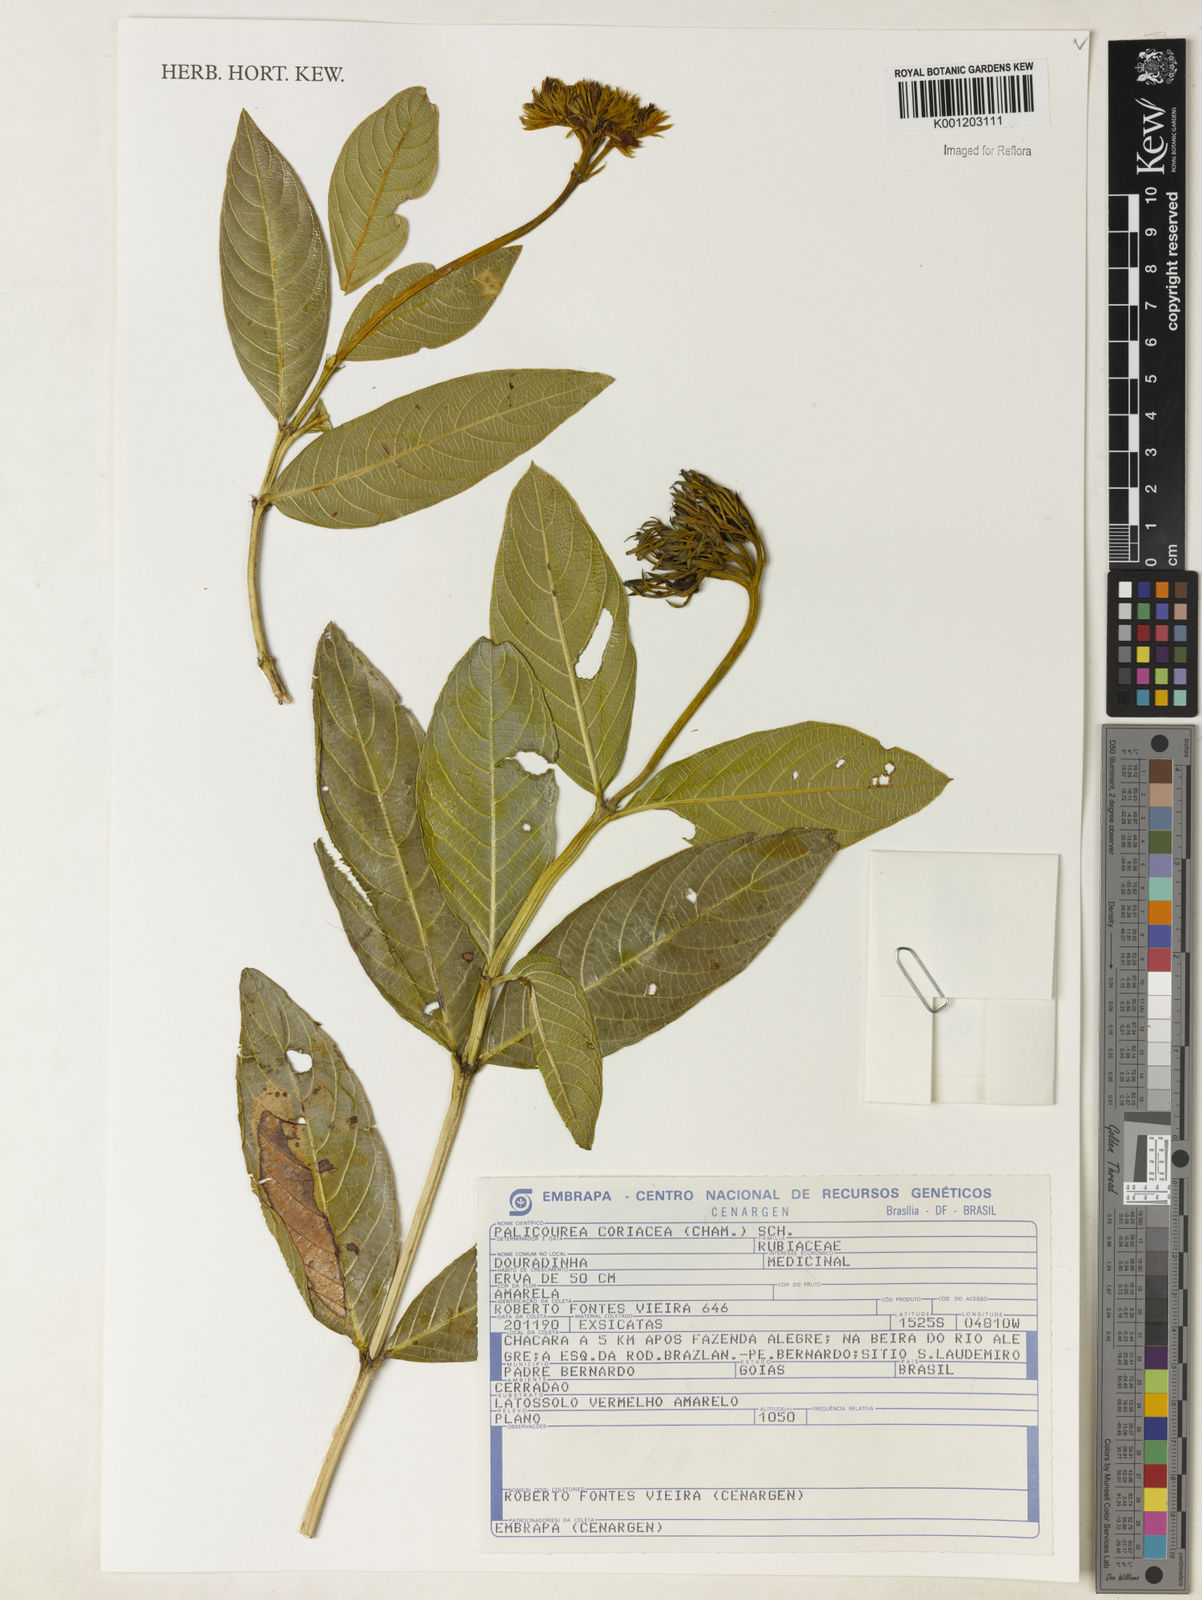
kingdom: Plantae
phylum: Tracheophyta
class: Magnoliopsida
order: Gentianales
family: Rubiaceae
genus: Palicourea
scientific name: Palicourea coriacea
